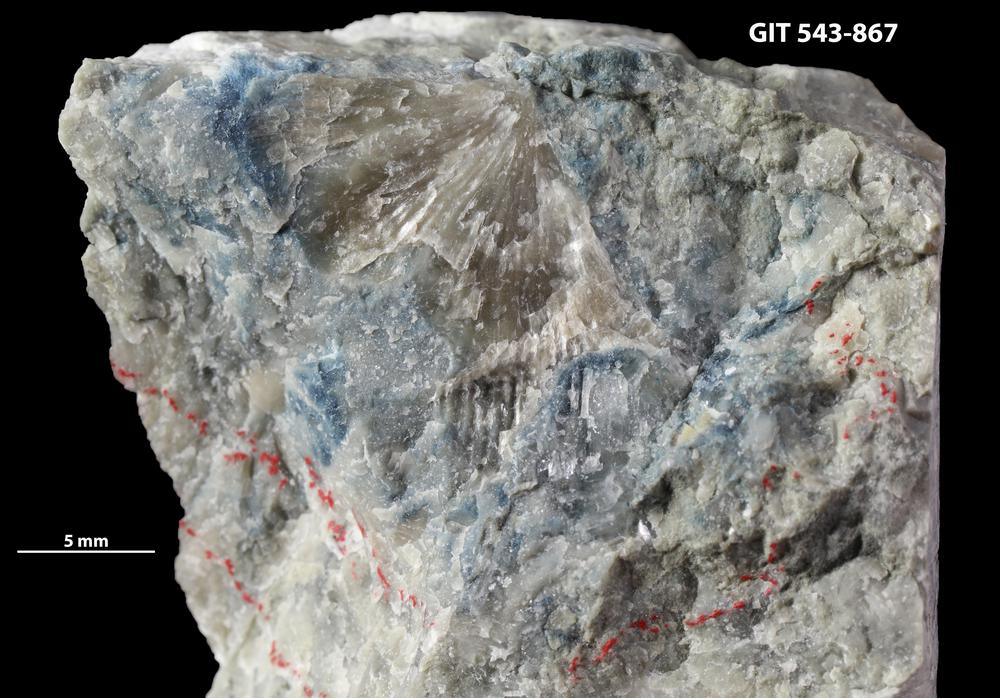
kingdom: Animalia
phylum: Brachiopoda
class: Rhynchonellata
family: Clitambonitidae
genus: Vellamo
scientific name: Vellamo
